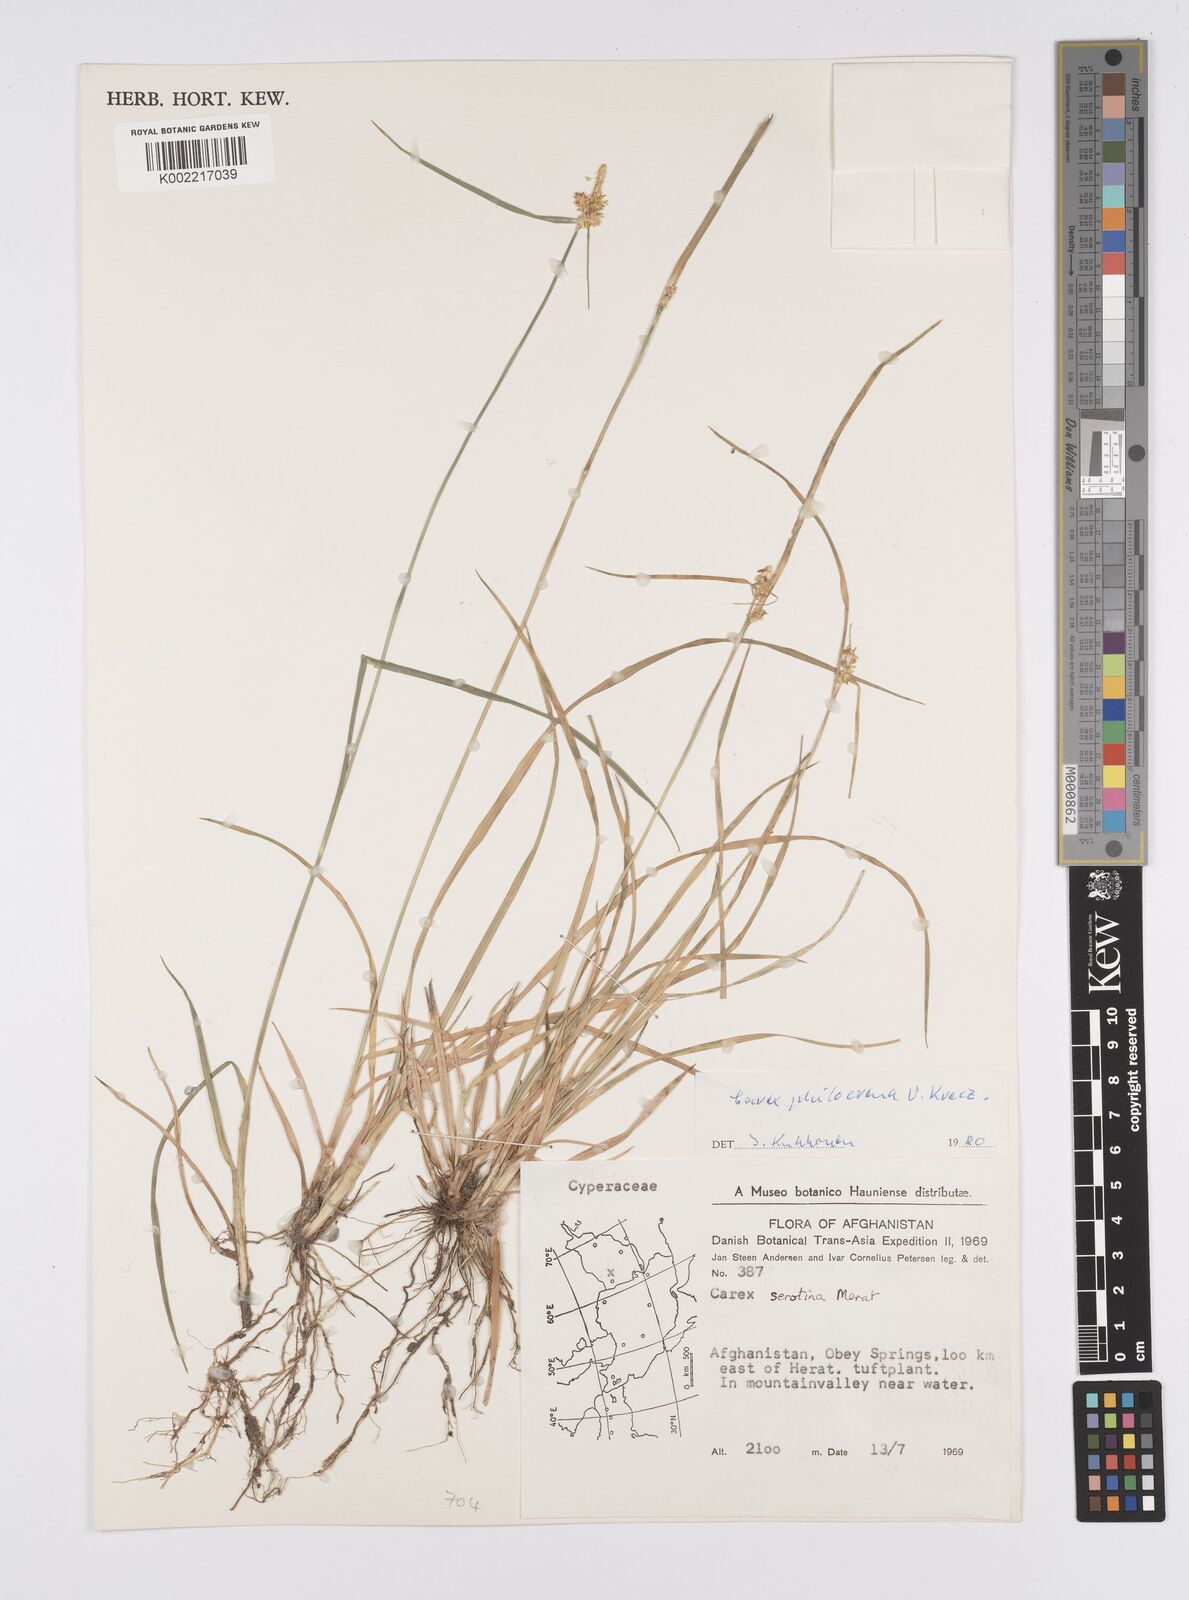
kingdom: Plantae
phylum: Tracheophyta
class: Liliopsida
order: Poales
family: Cyperaceae
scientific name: Cyperaceae
